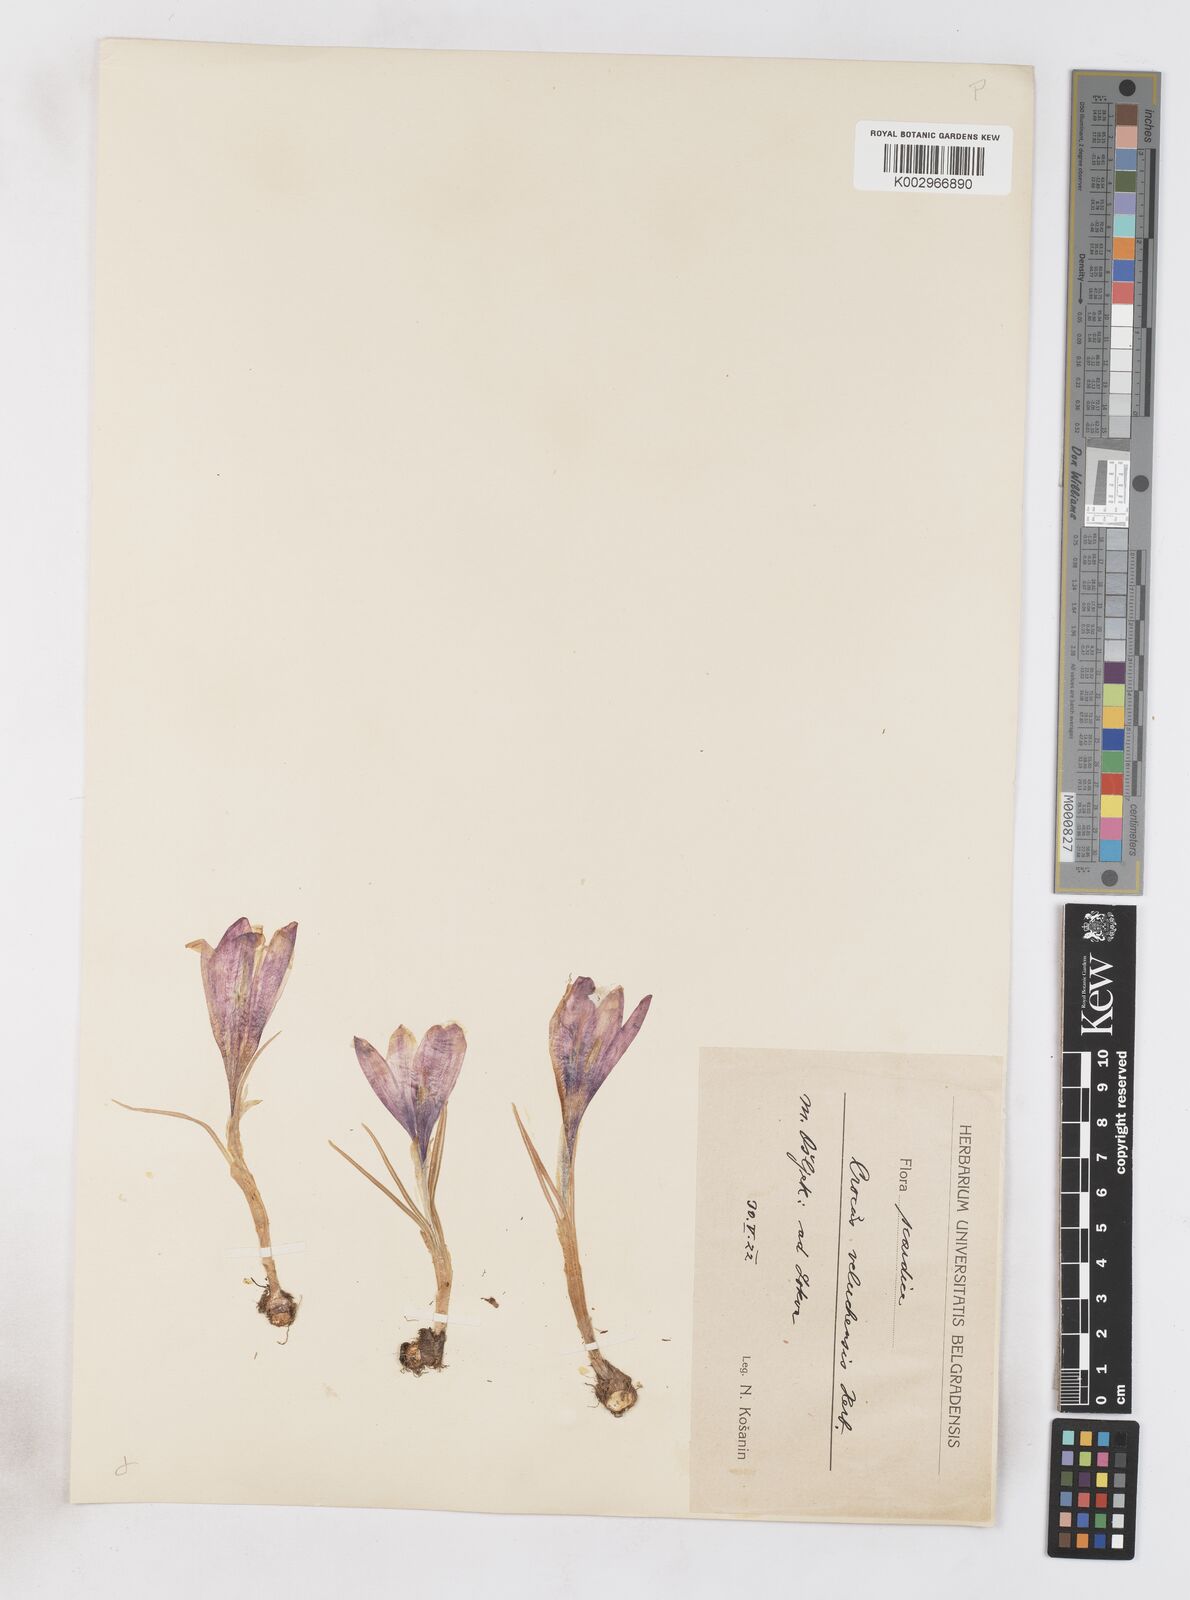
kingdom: Plantae
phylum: Tracheophyta
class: Liliopsida
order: Asparagales
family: Iridaceae
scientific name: Iridaceae
